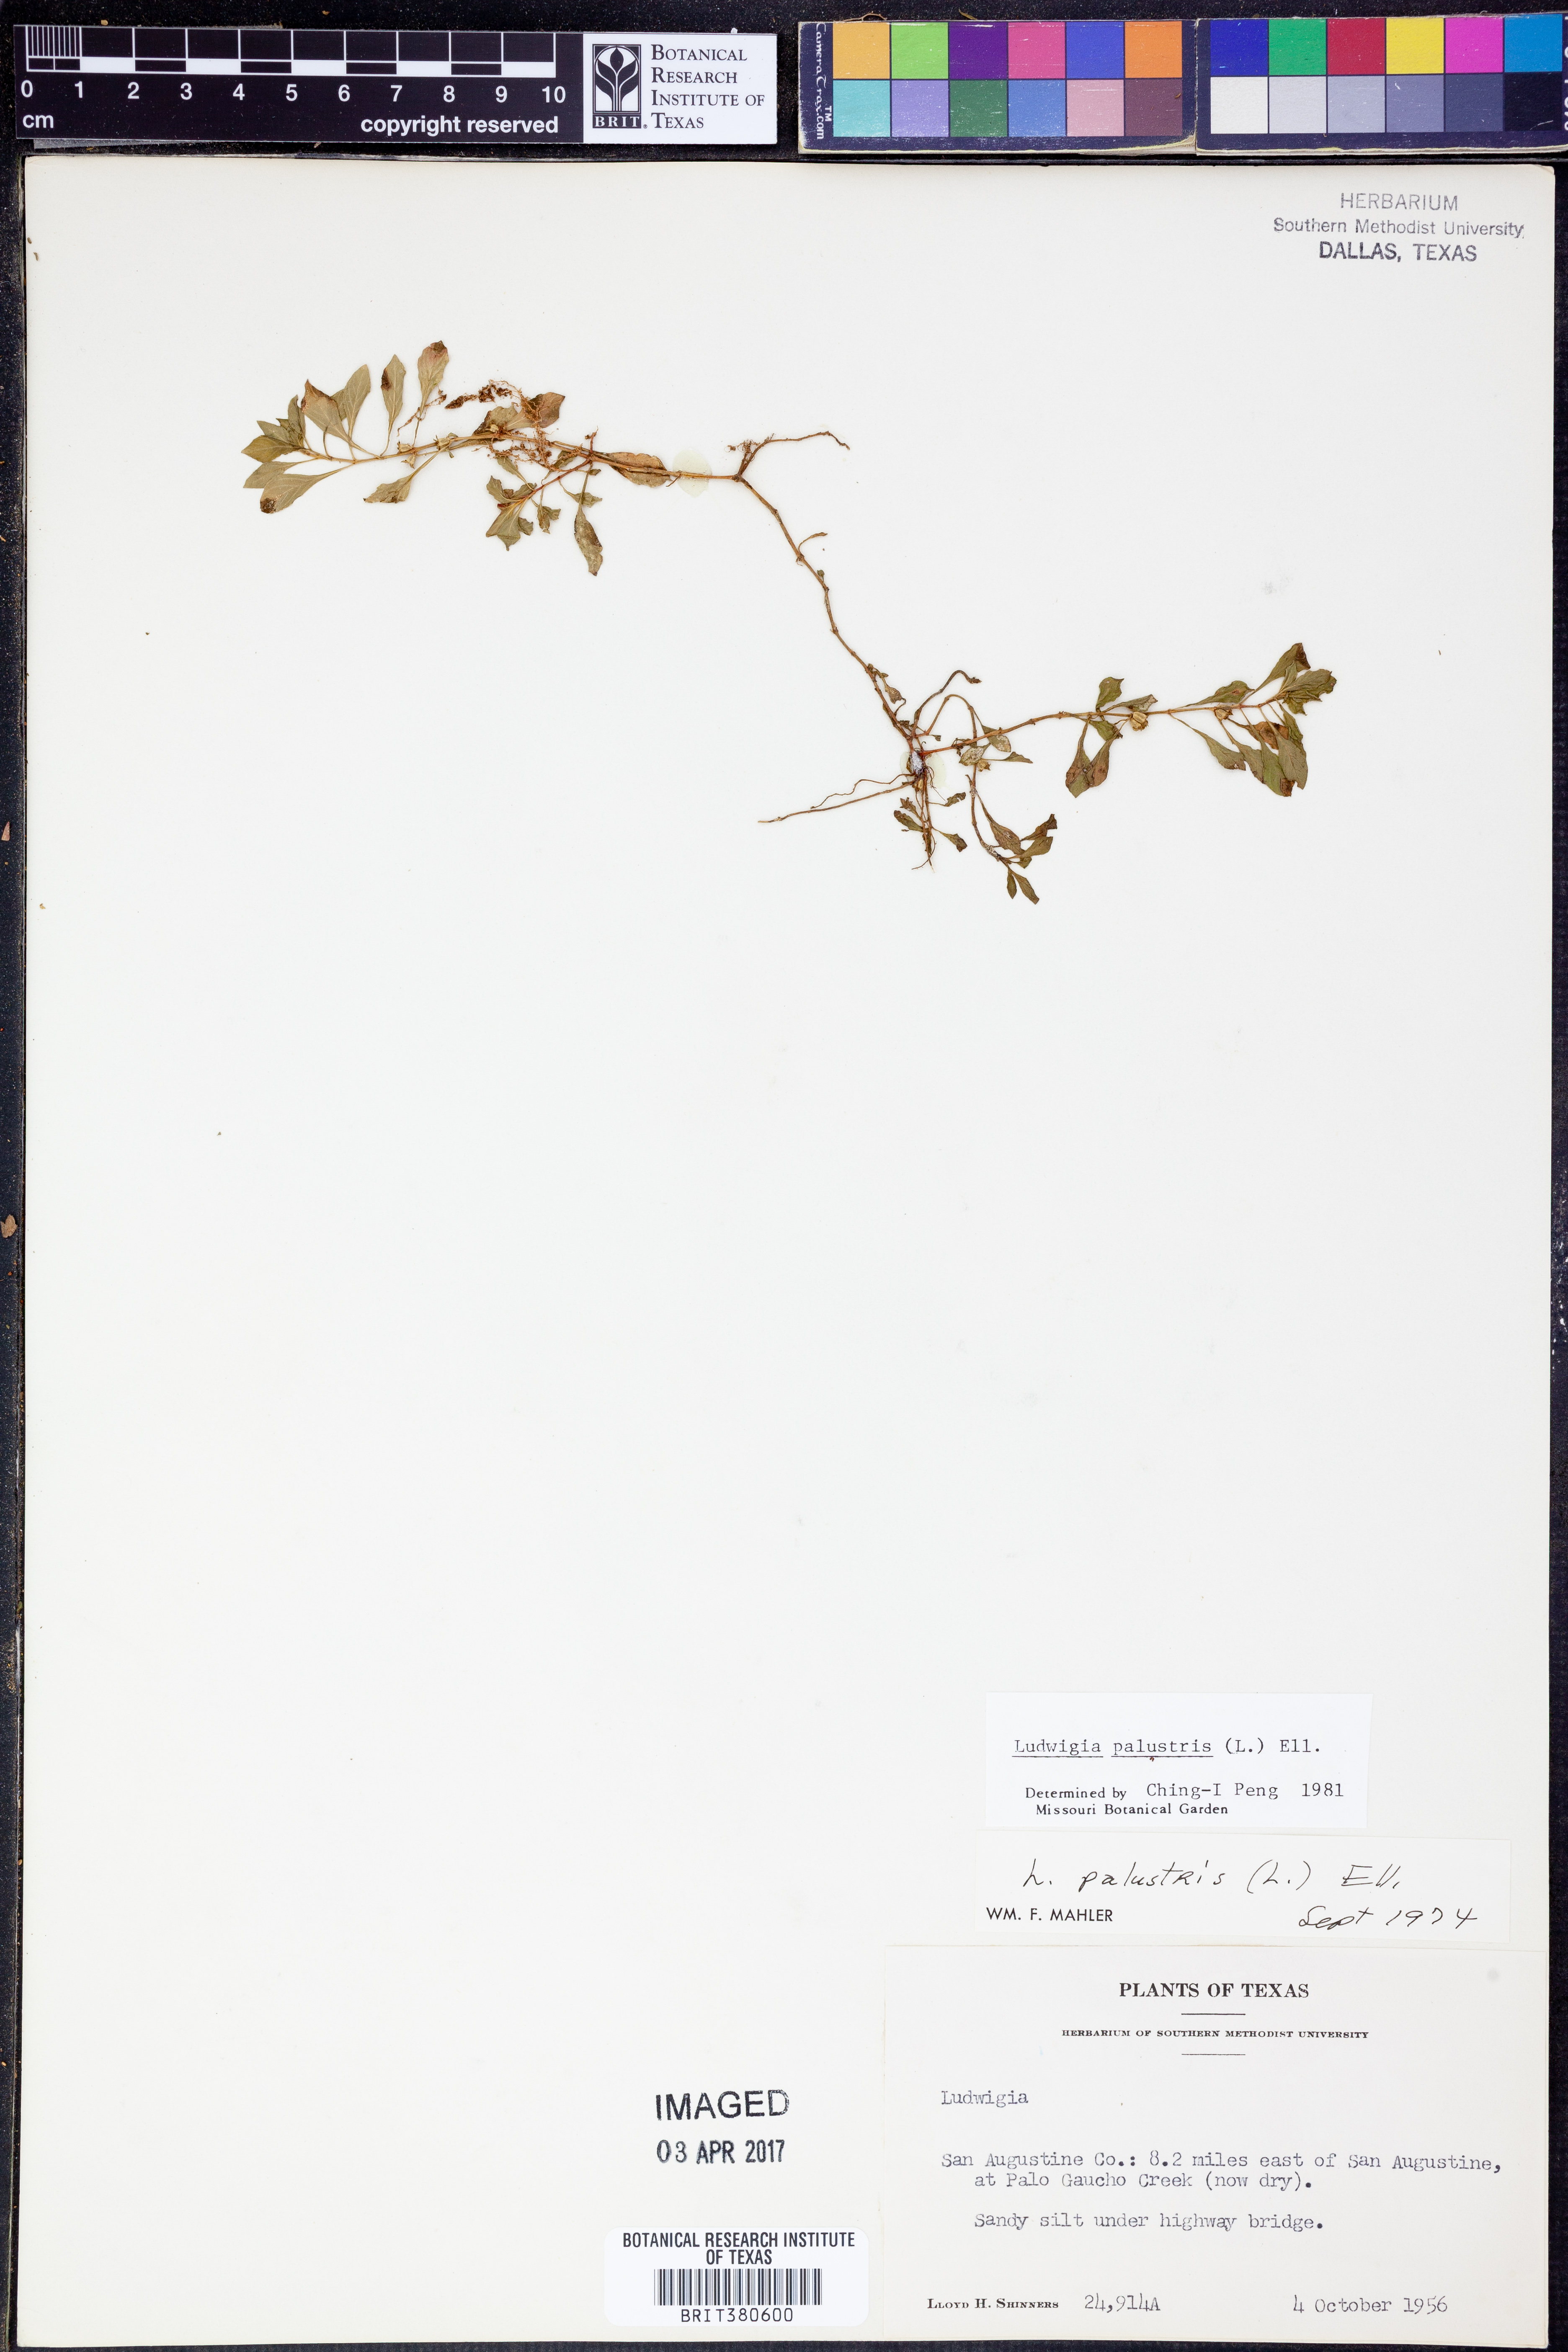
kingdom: Plantae
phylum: Tracheophyta
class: Magnoliopsida
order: Myrtales
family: Onagraceae
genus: Ludwigia
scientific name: Ludwigia palustris
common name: Hampshire-purslane
